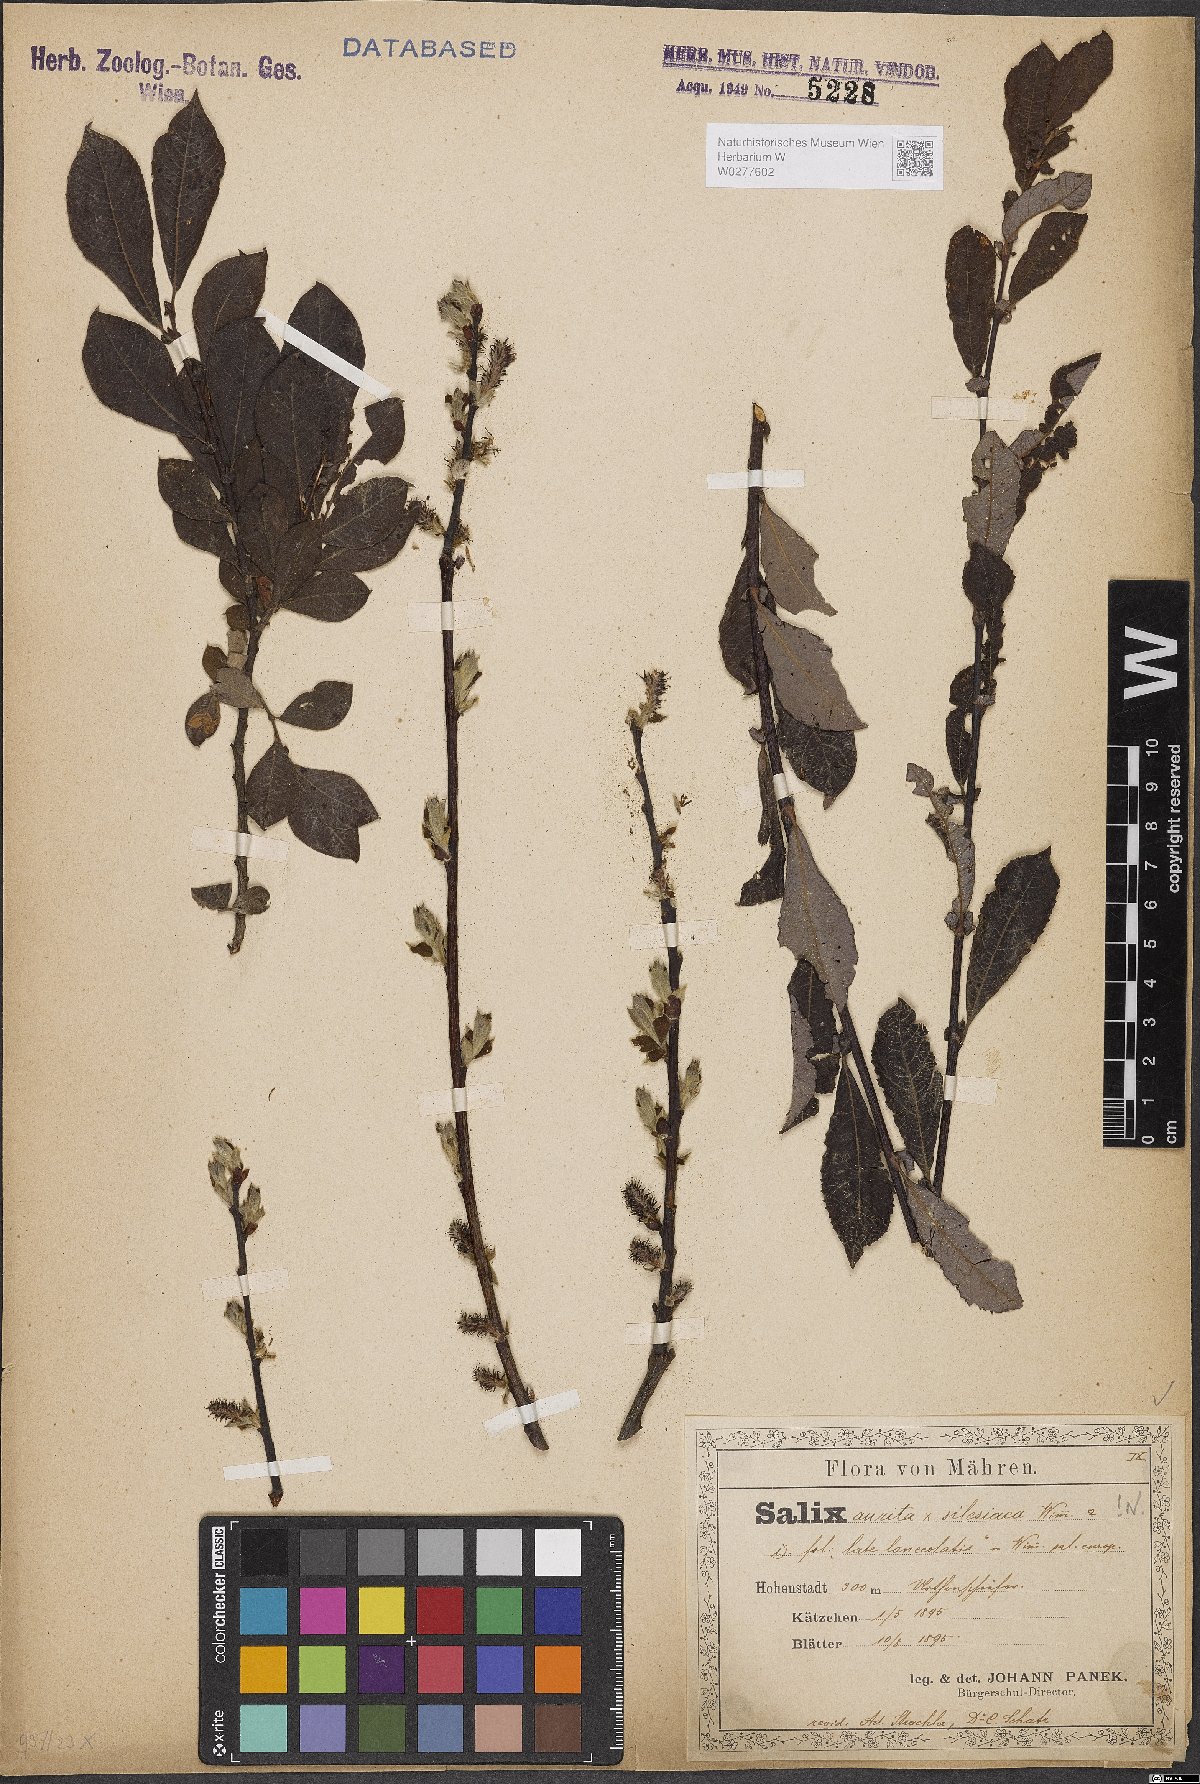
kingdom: Plantae
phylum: Tracheophyta
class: Magnoliopsida
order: Malpighiales
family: Salicaceae
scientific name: Salicaceae
